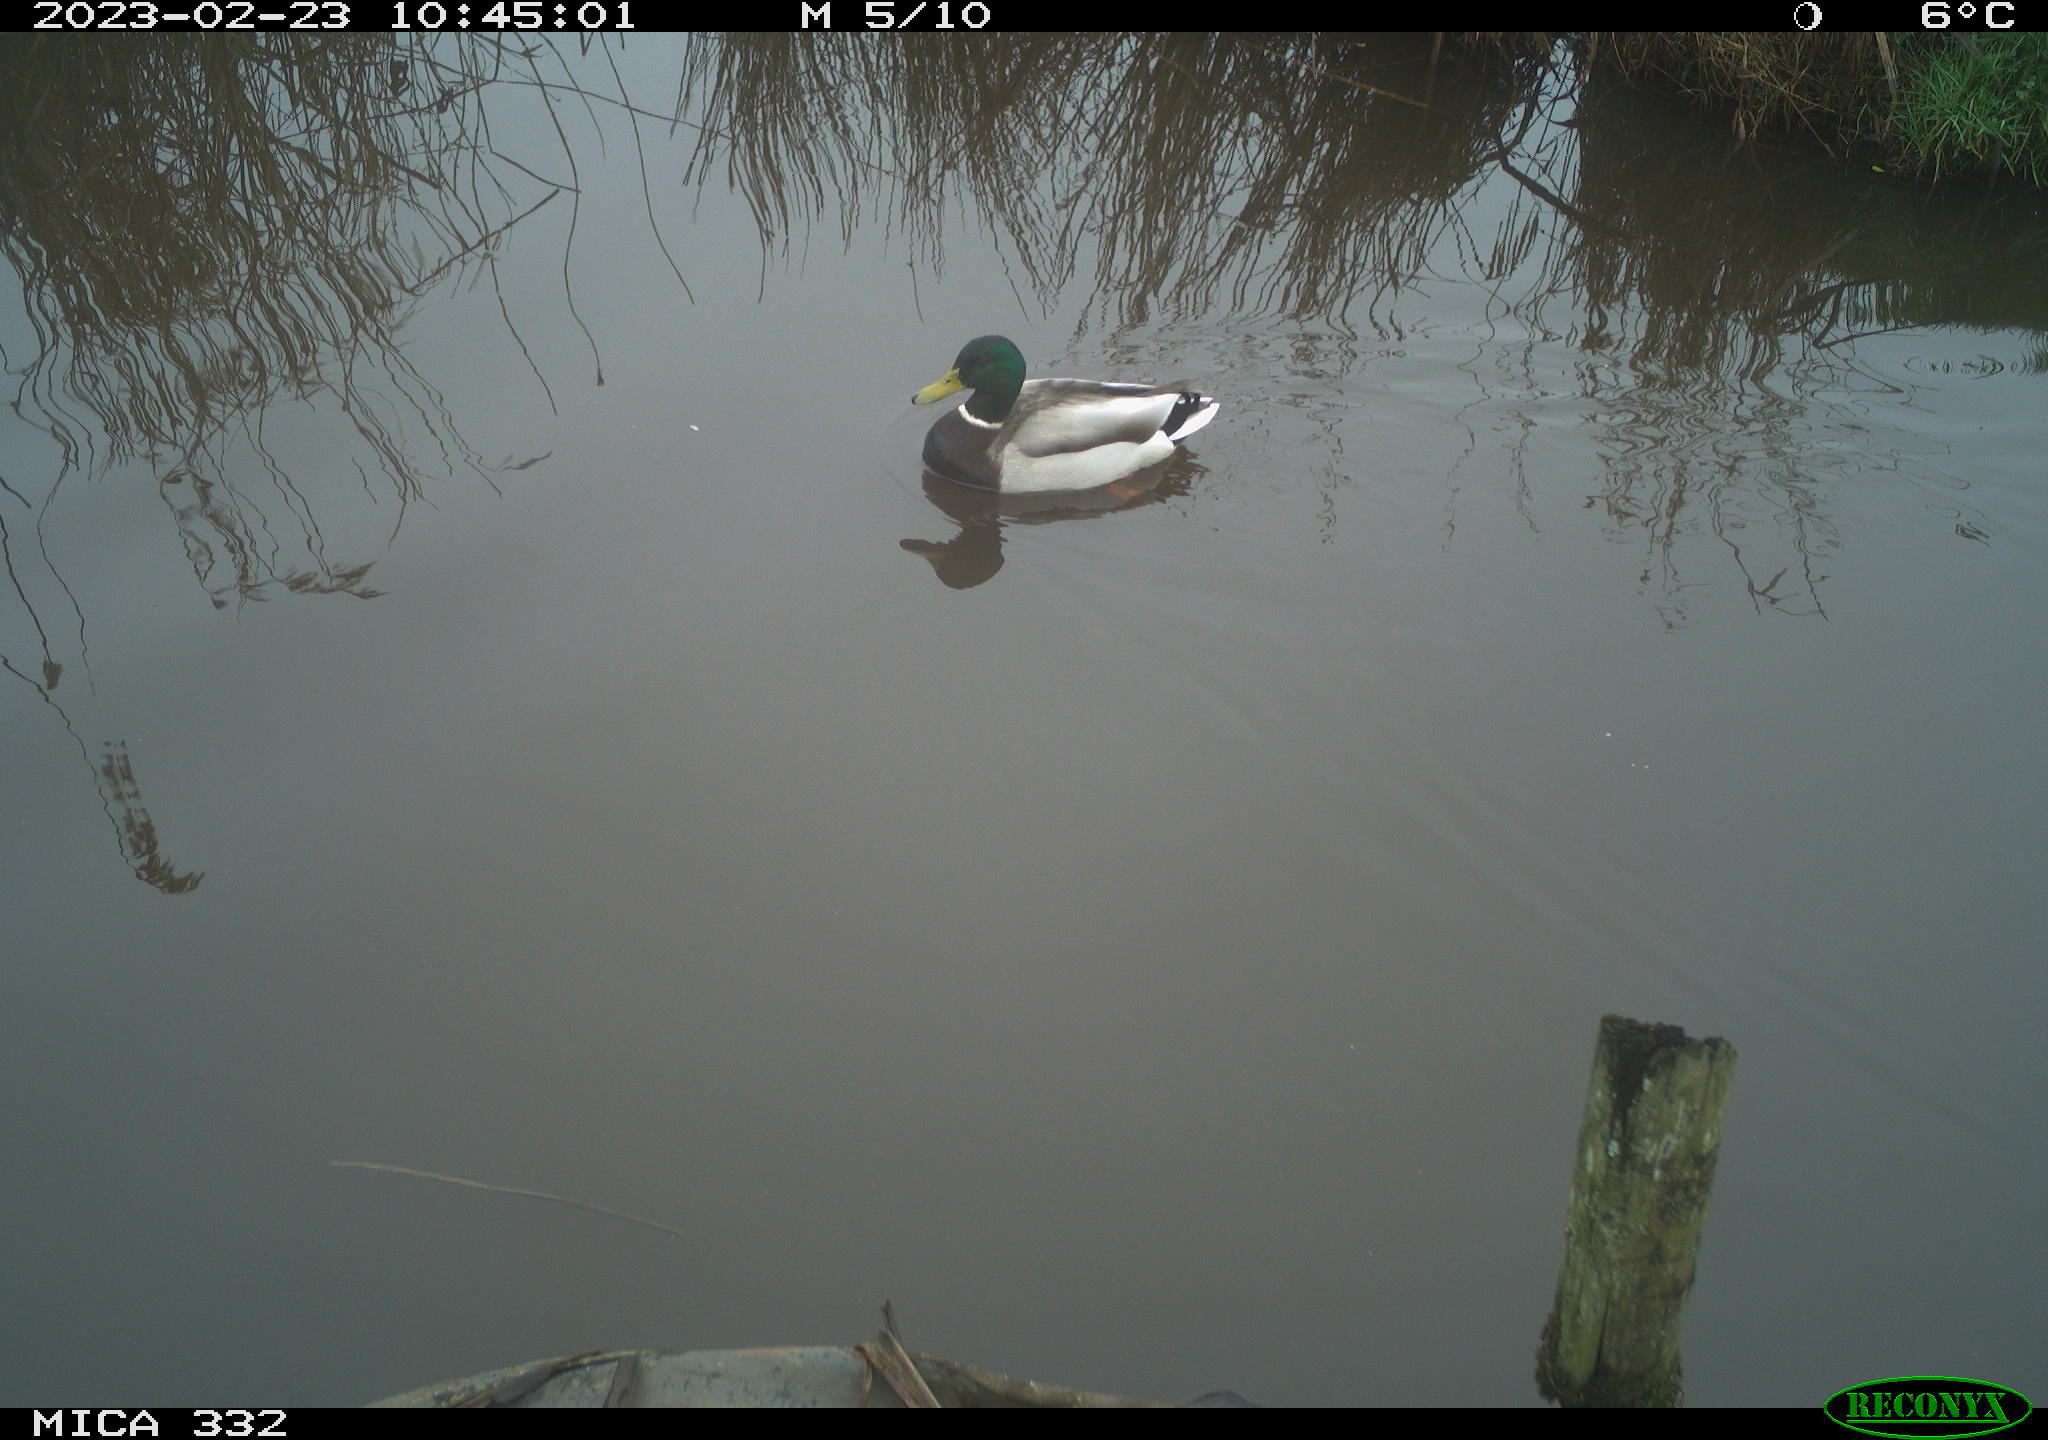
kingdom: Animalia
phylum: Chordata
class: Aves
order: Anseriformes
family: Anatidae
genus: Anas
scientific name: Anas
